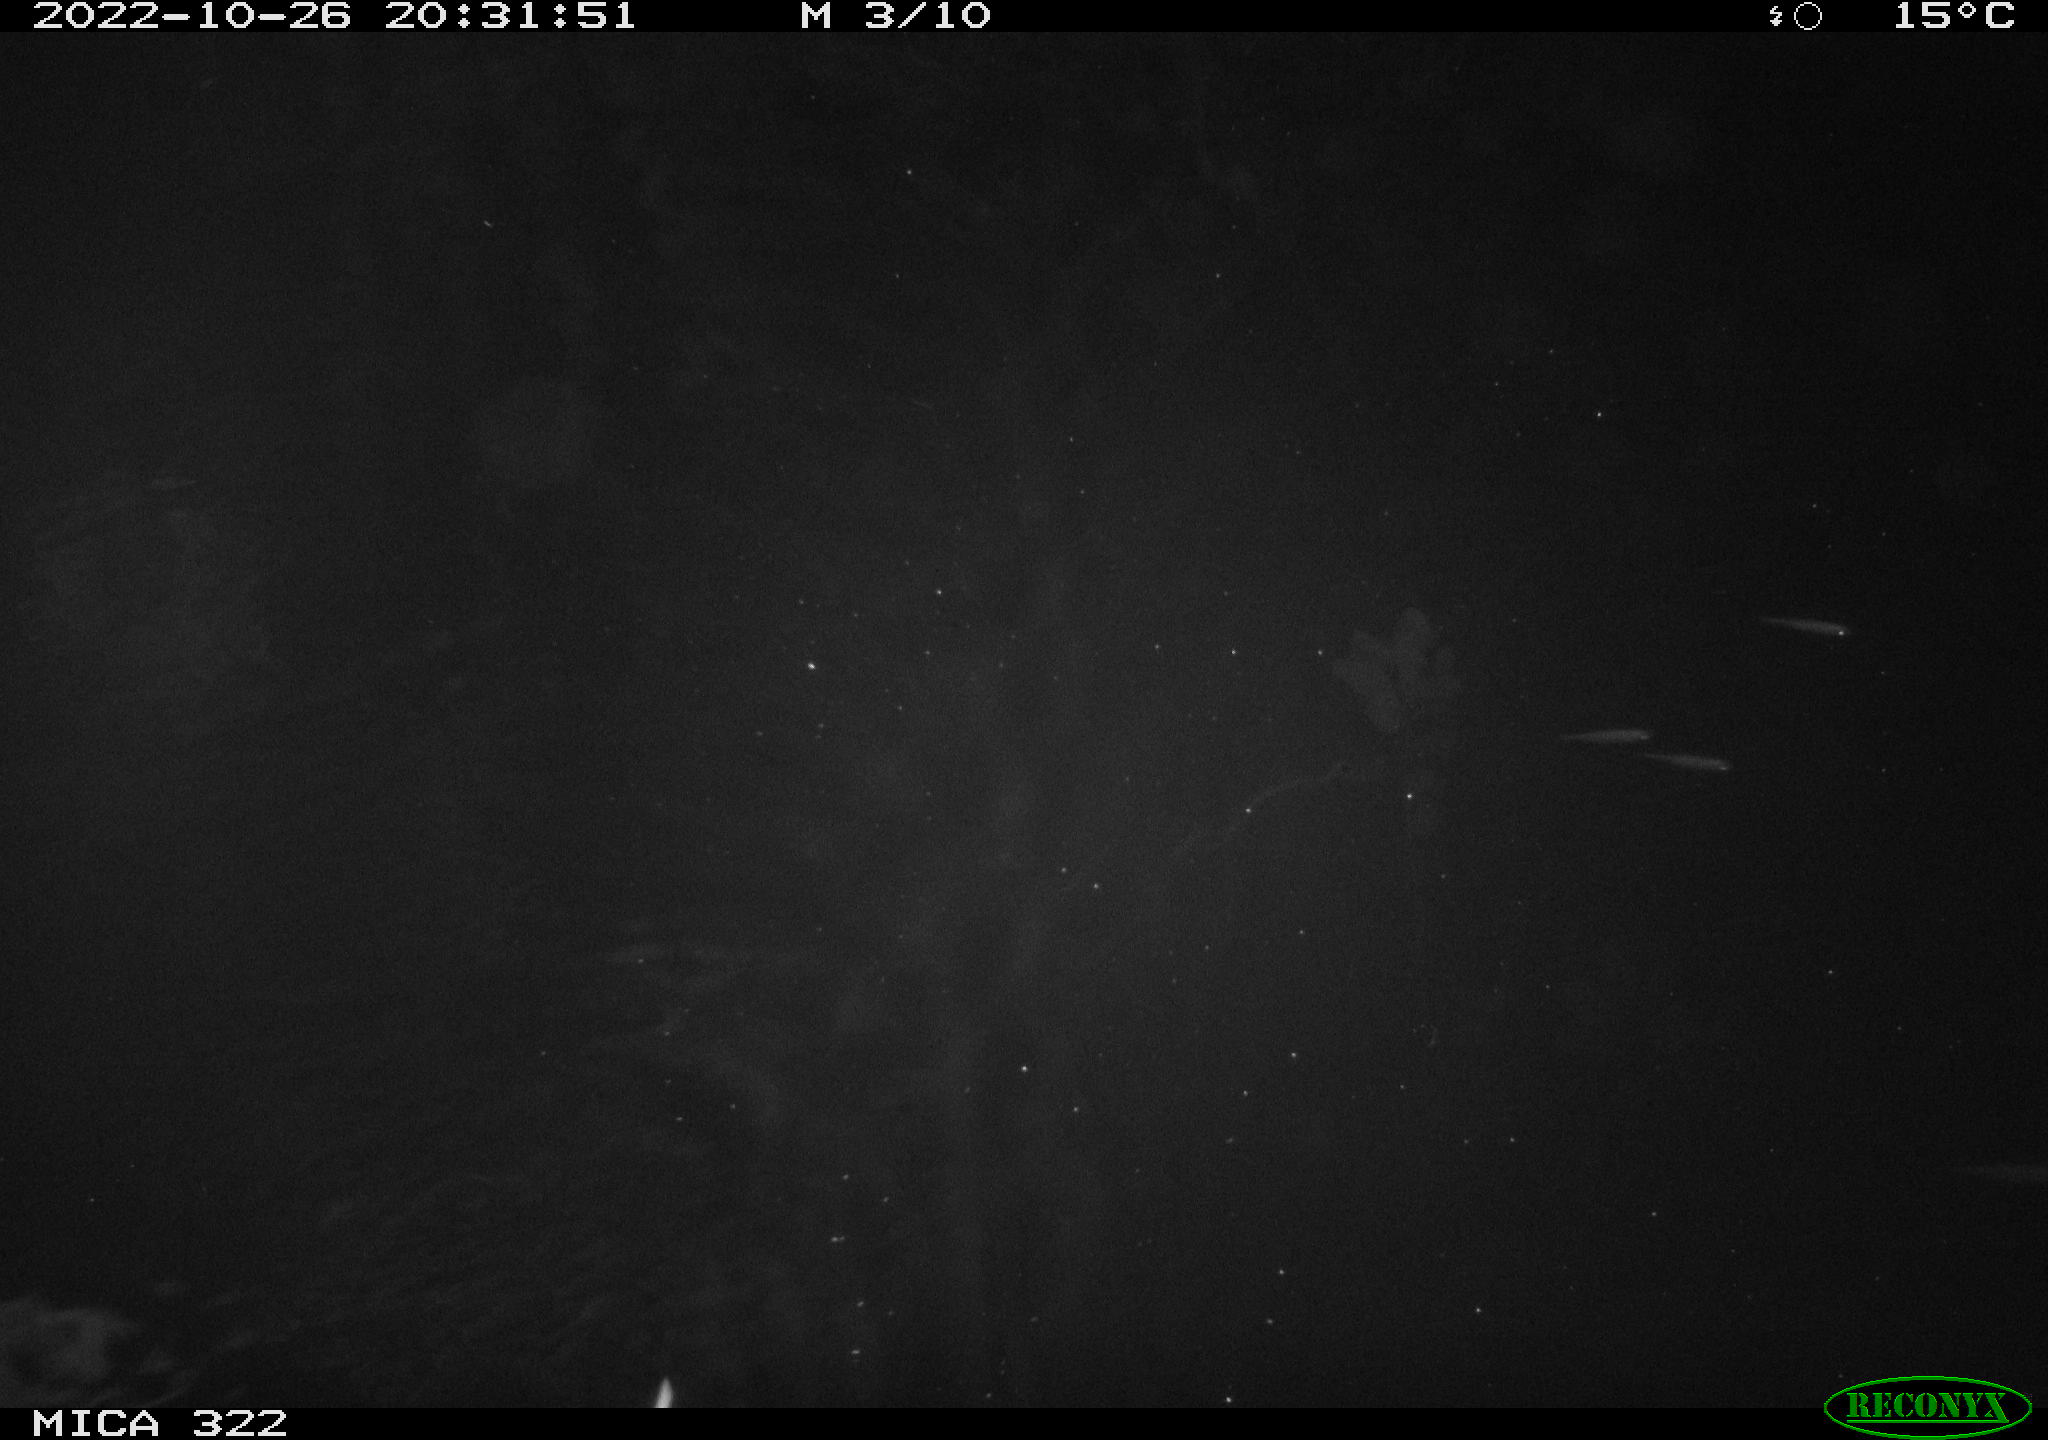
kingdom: Animalia
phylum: Chordata
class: Mammalia
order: Rodentia
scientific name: Rodentia
